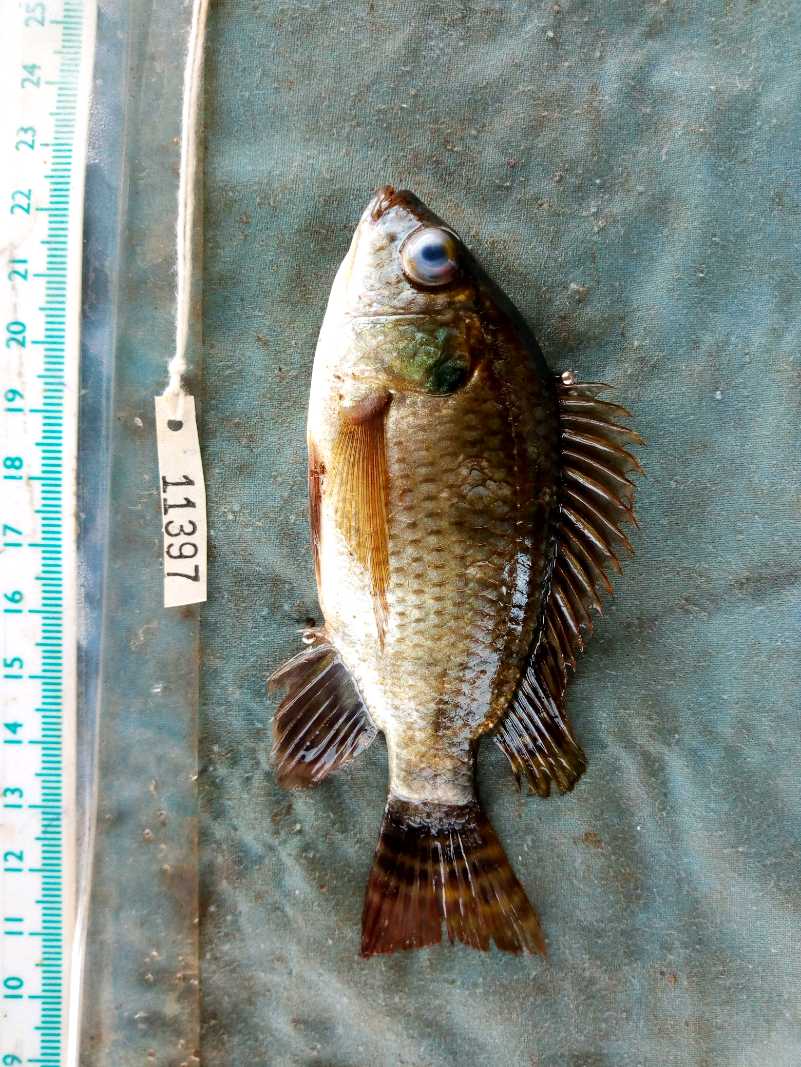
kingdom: Animalia
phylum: Chordata
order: Perciformes
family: Cichlidae
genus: Oreochromis
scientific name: Oreochromis niloticus
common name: Nile tilapia
